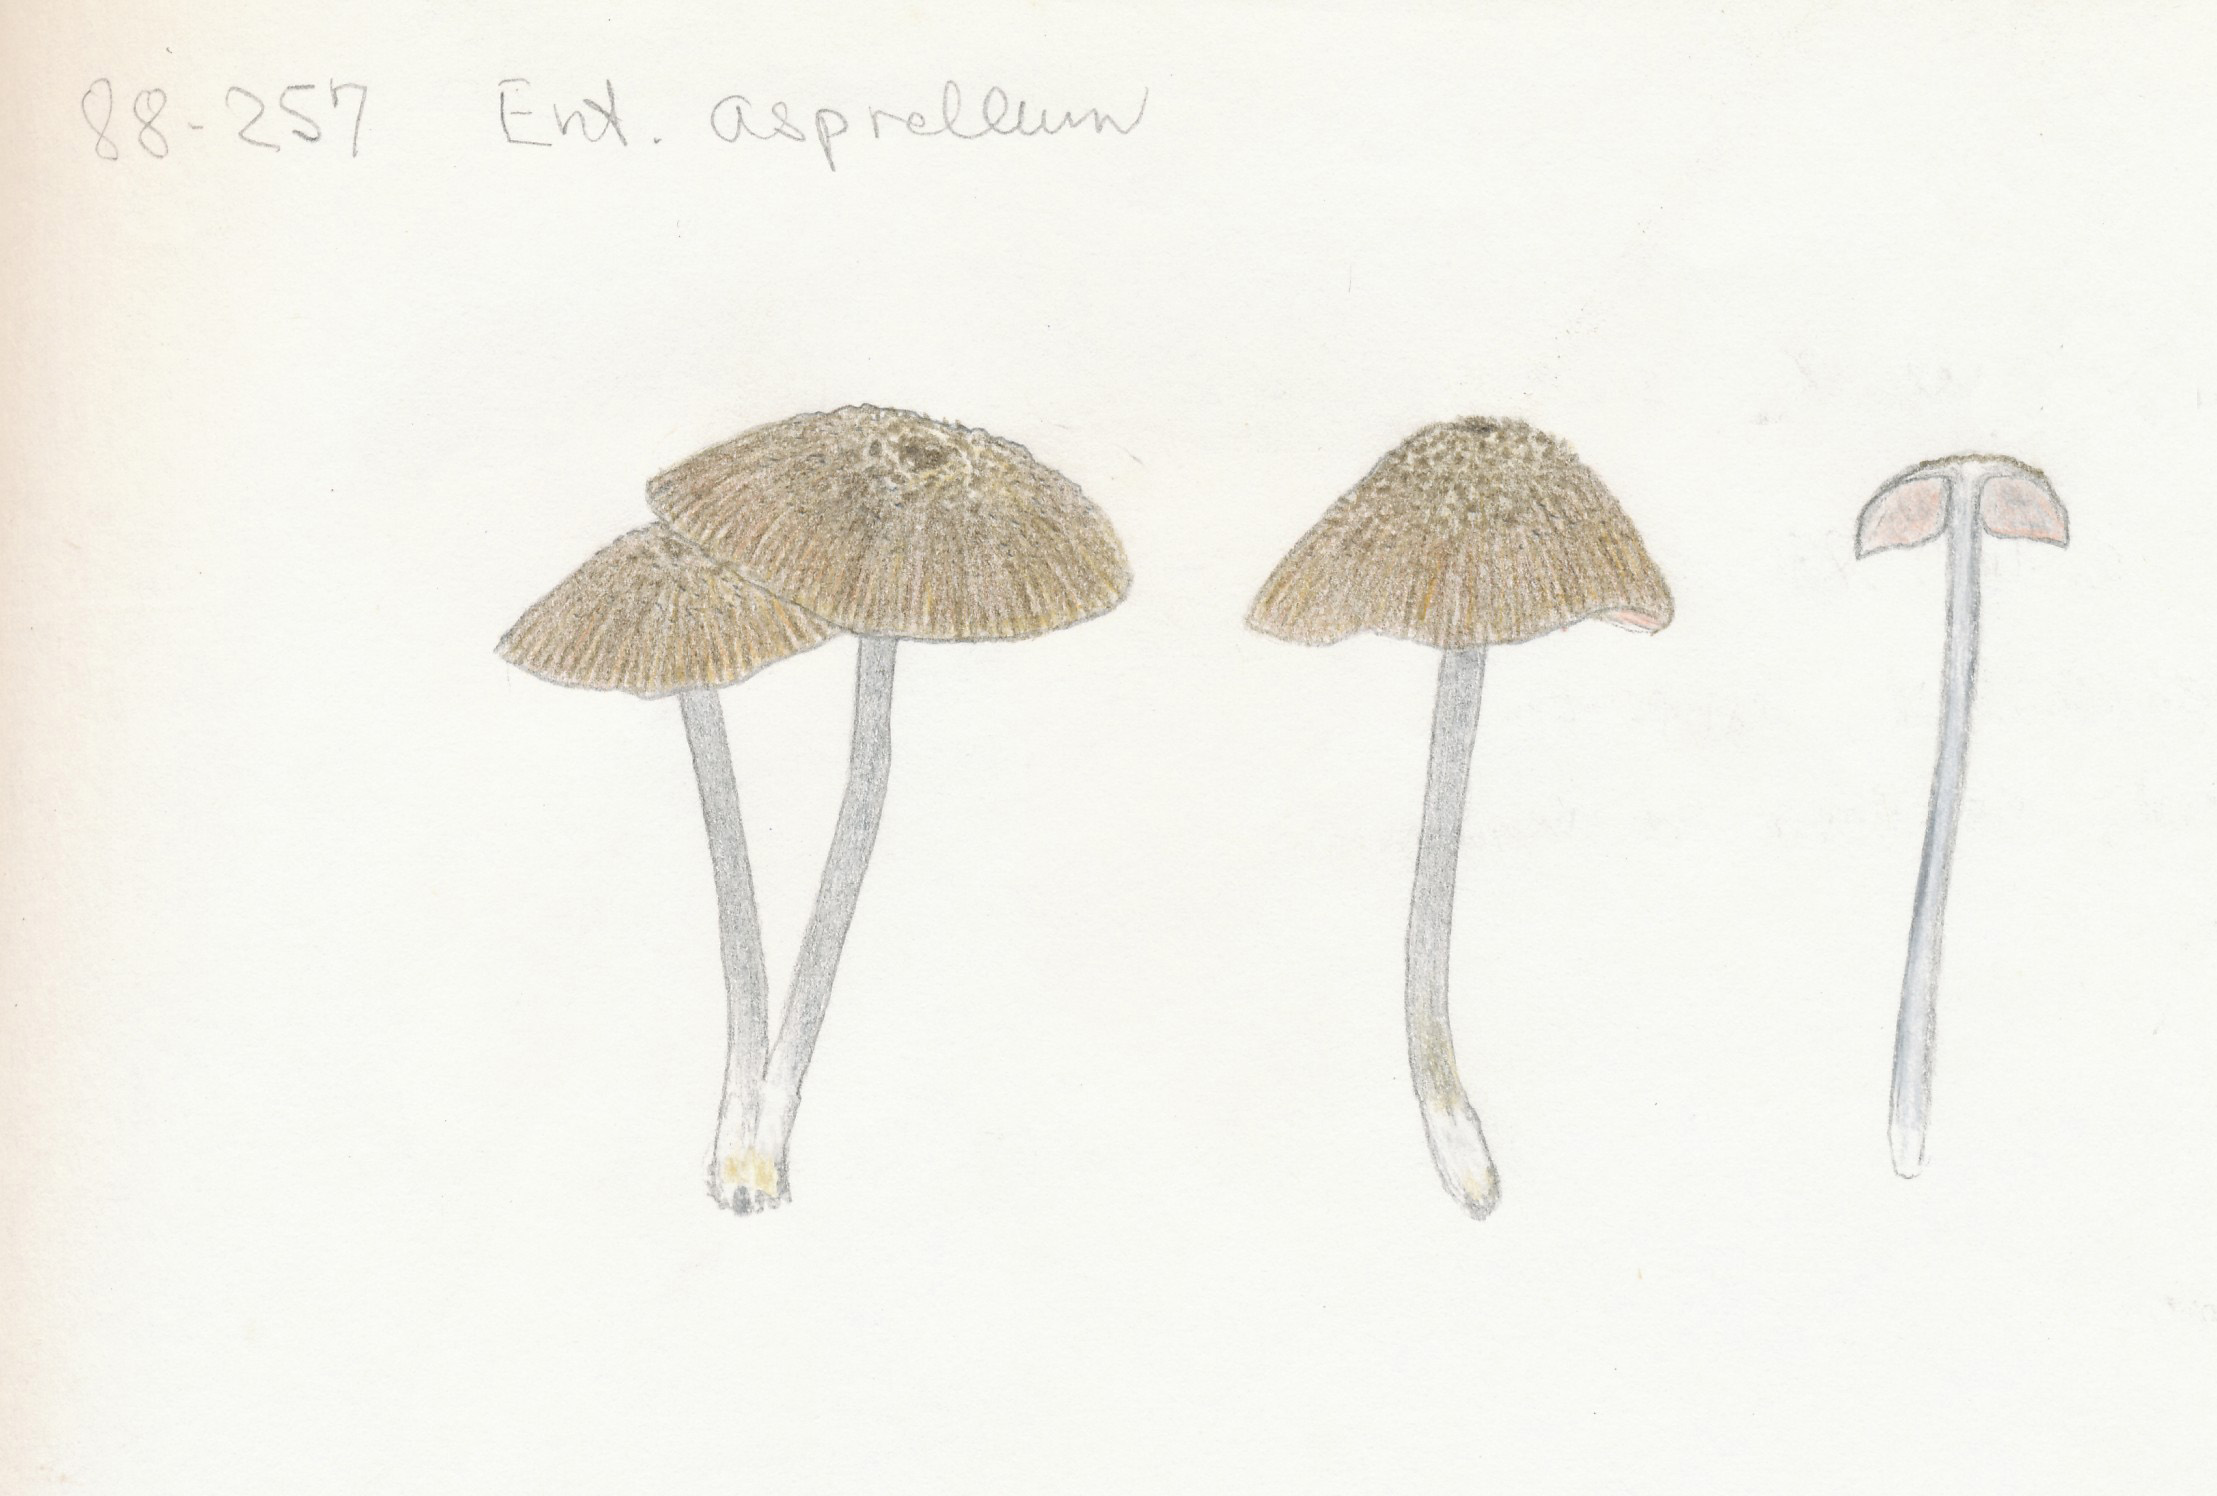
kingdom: Fungi
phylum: Basidiomycota
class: Agaricomycetes
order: Agaricales
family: Entolomataceae
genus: Entoloma
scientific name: Entoloma asprellum
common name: ru rødblad
